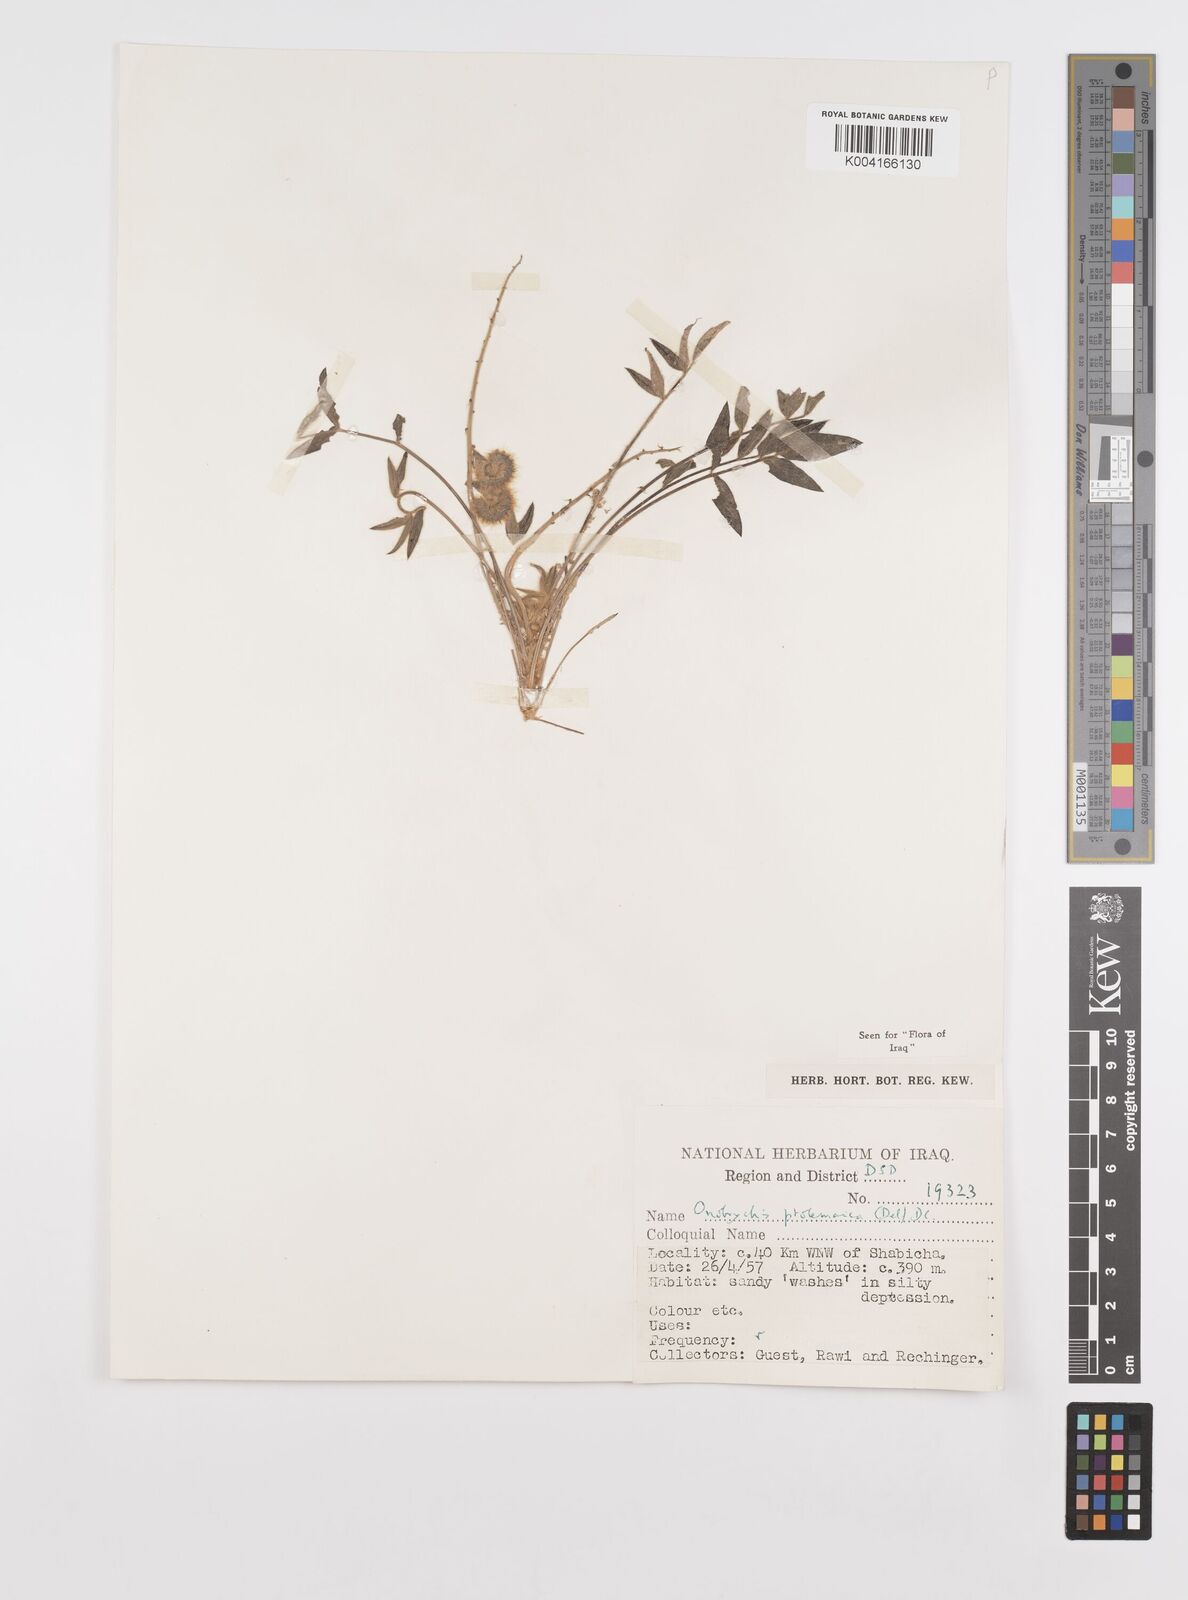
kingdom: Plantae
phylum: Tracheophyta
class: Magnoliopsida
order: Fabales
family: Fabaceae
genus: Onobrychis
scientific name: Onobrychis ptolemaica
